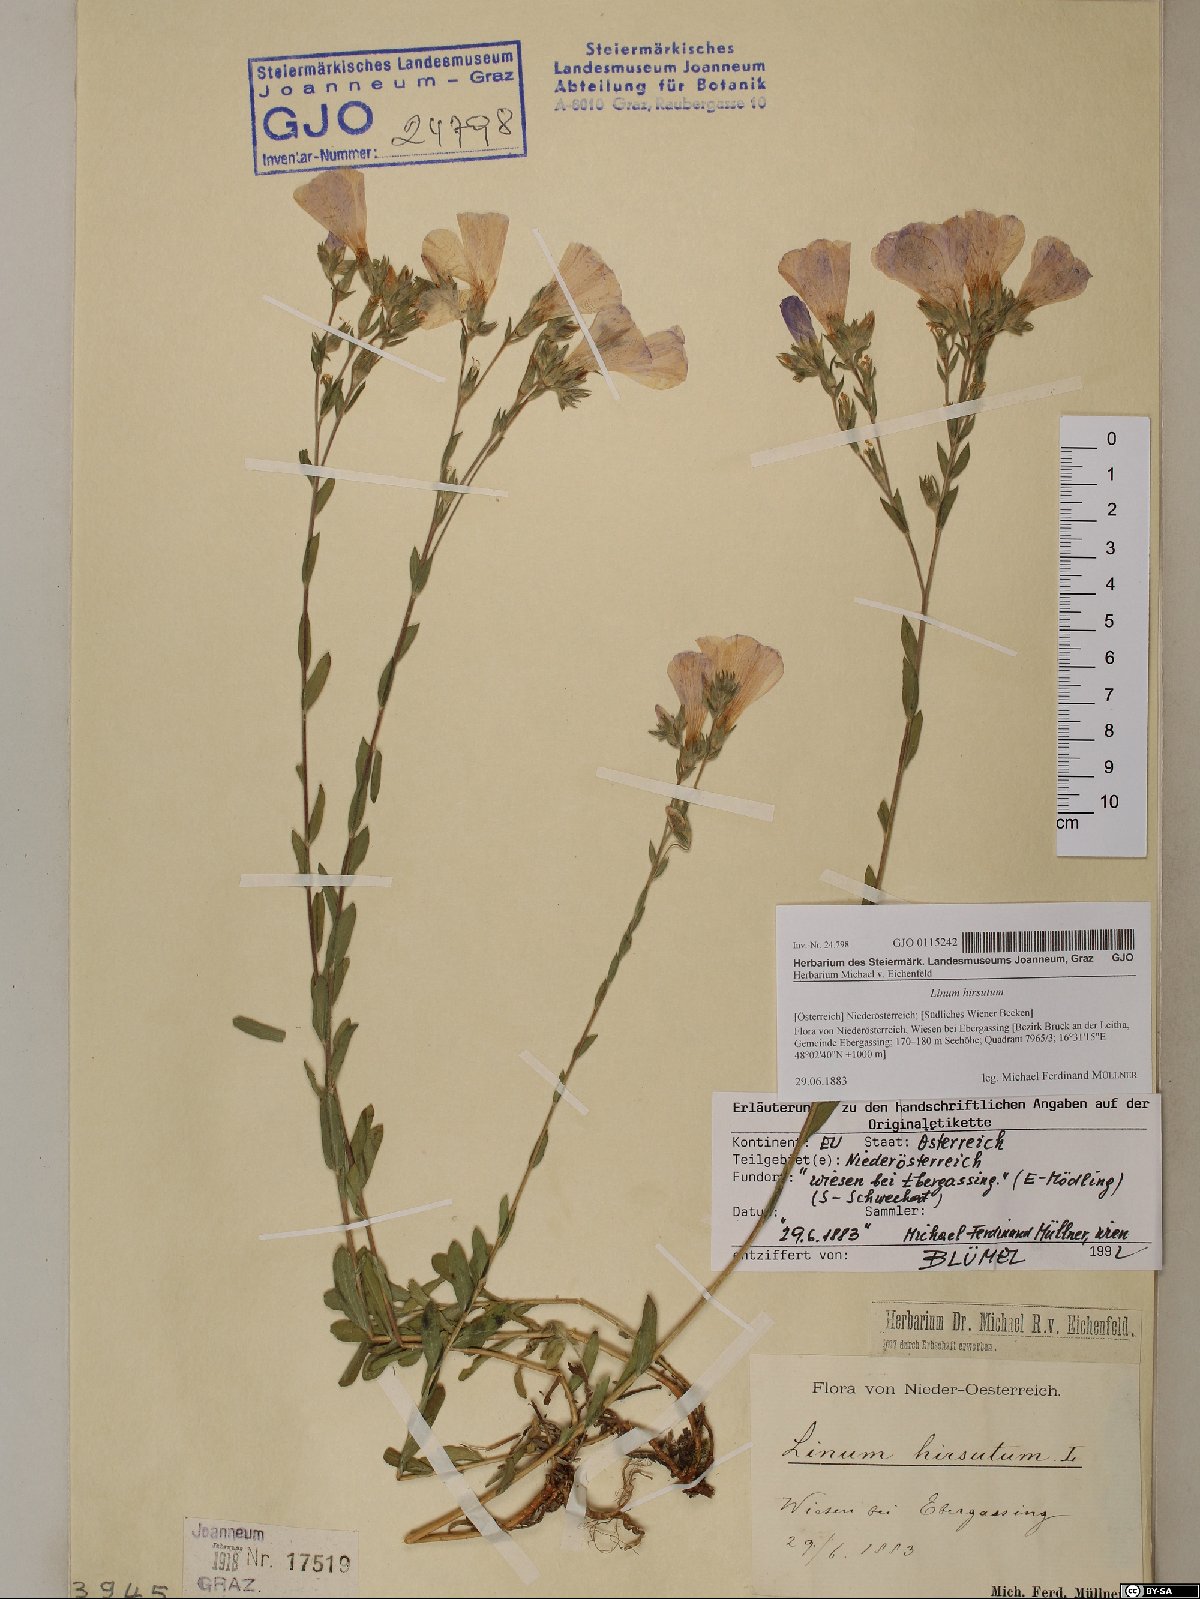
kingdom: Plantae
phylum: Tracheophyta
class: Magnoliopsida
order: Malpighiales
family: Linaceae
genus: Linum
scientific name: Linum hirsutum
